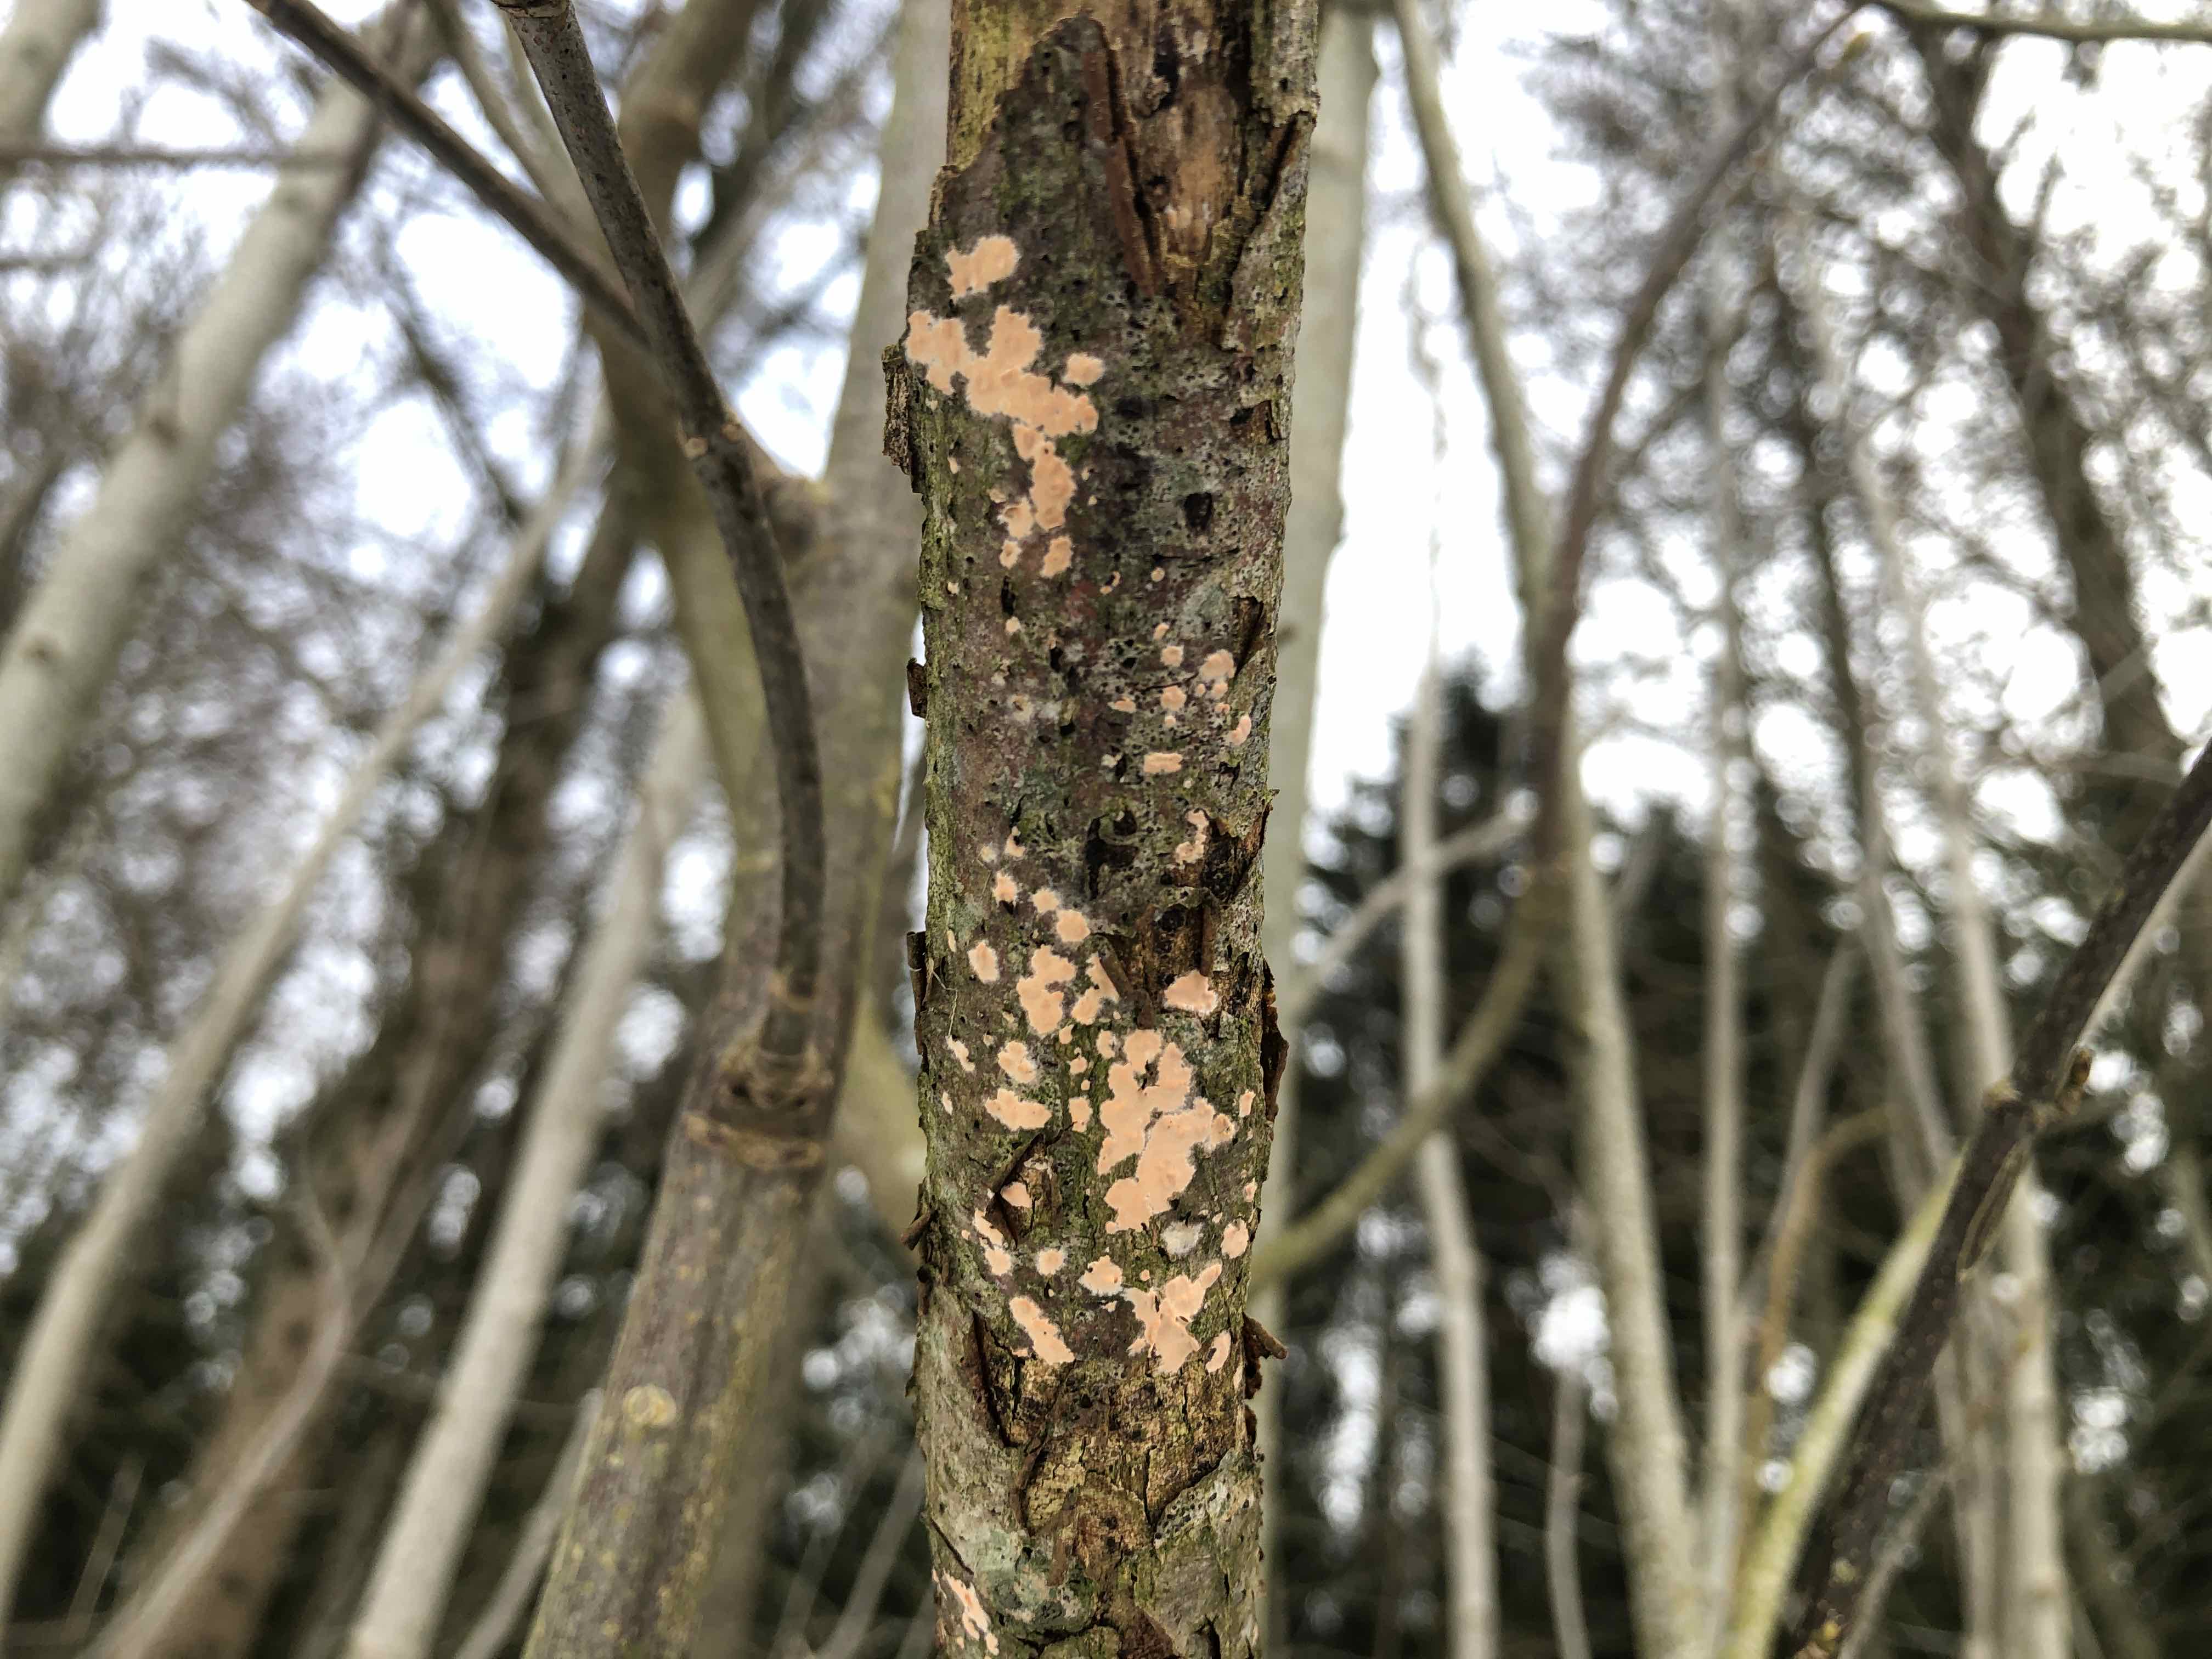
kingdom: Fungi
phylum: Basidiomycota
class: Agaricomycetes
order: Russulales
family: Peniophoraceae
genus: Peniophora
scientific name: Peniophora incarnata
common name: laksefarvet voksskind
